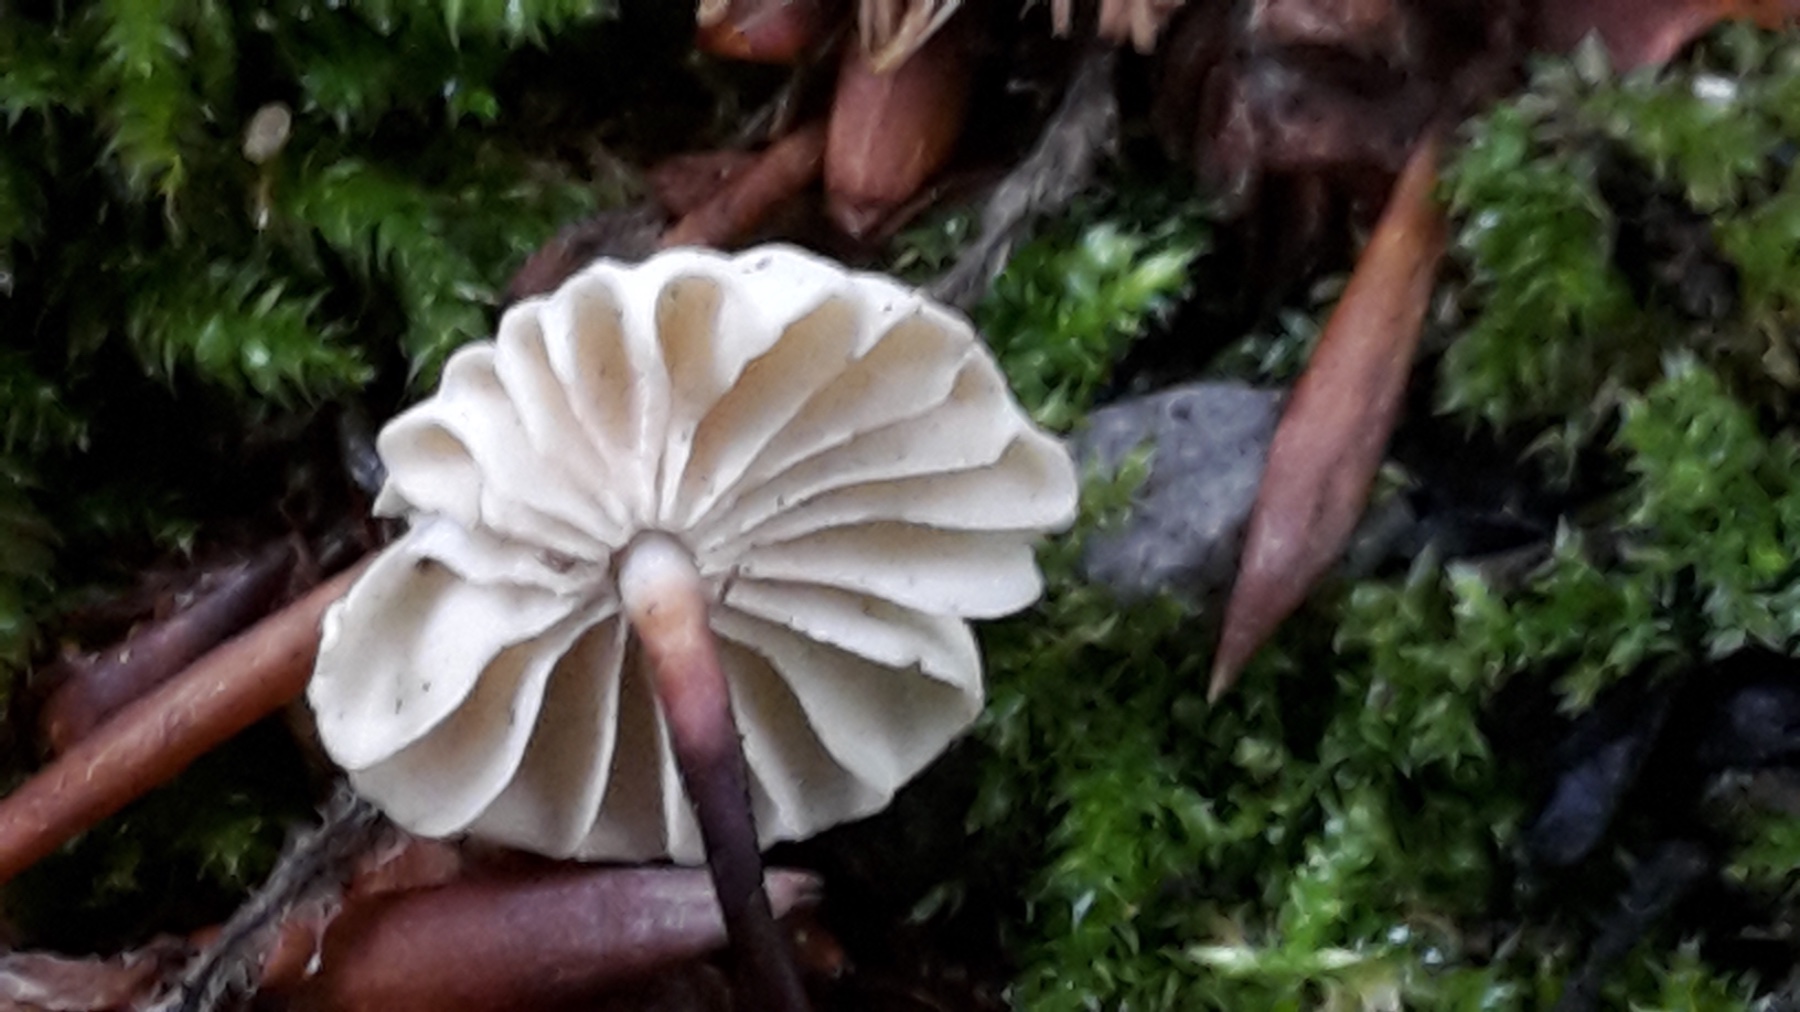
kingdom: Fungi
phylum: Basidiomycota
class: Agaricomycetes
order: Agaricales
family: Marasmiaceae
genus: Marasmius
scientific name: Marasmius rotula
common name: hjul-bruskhat
